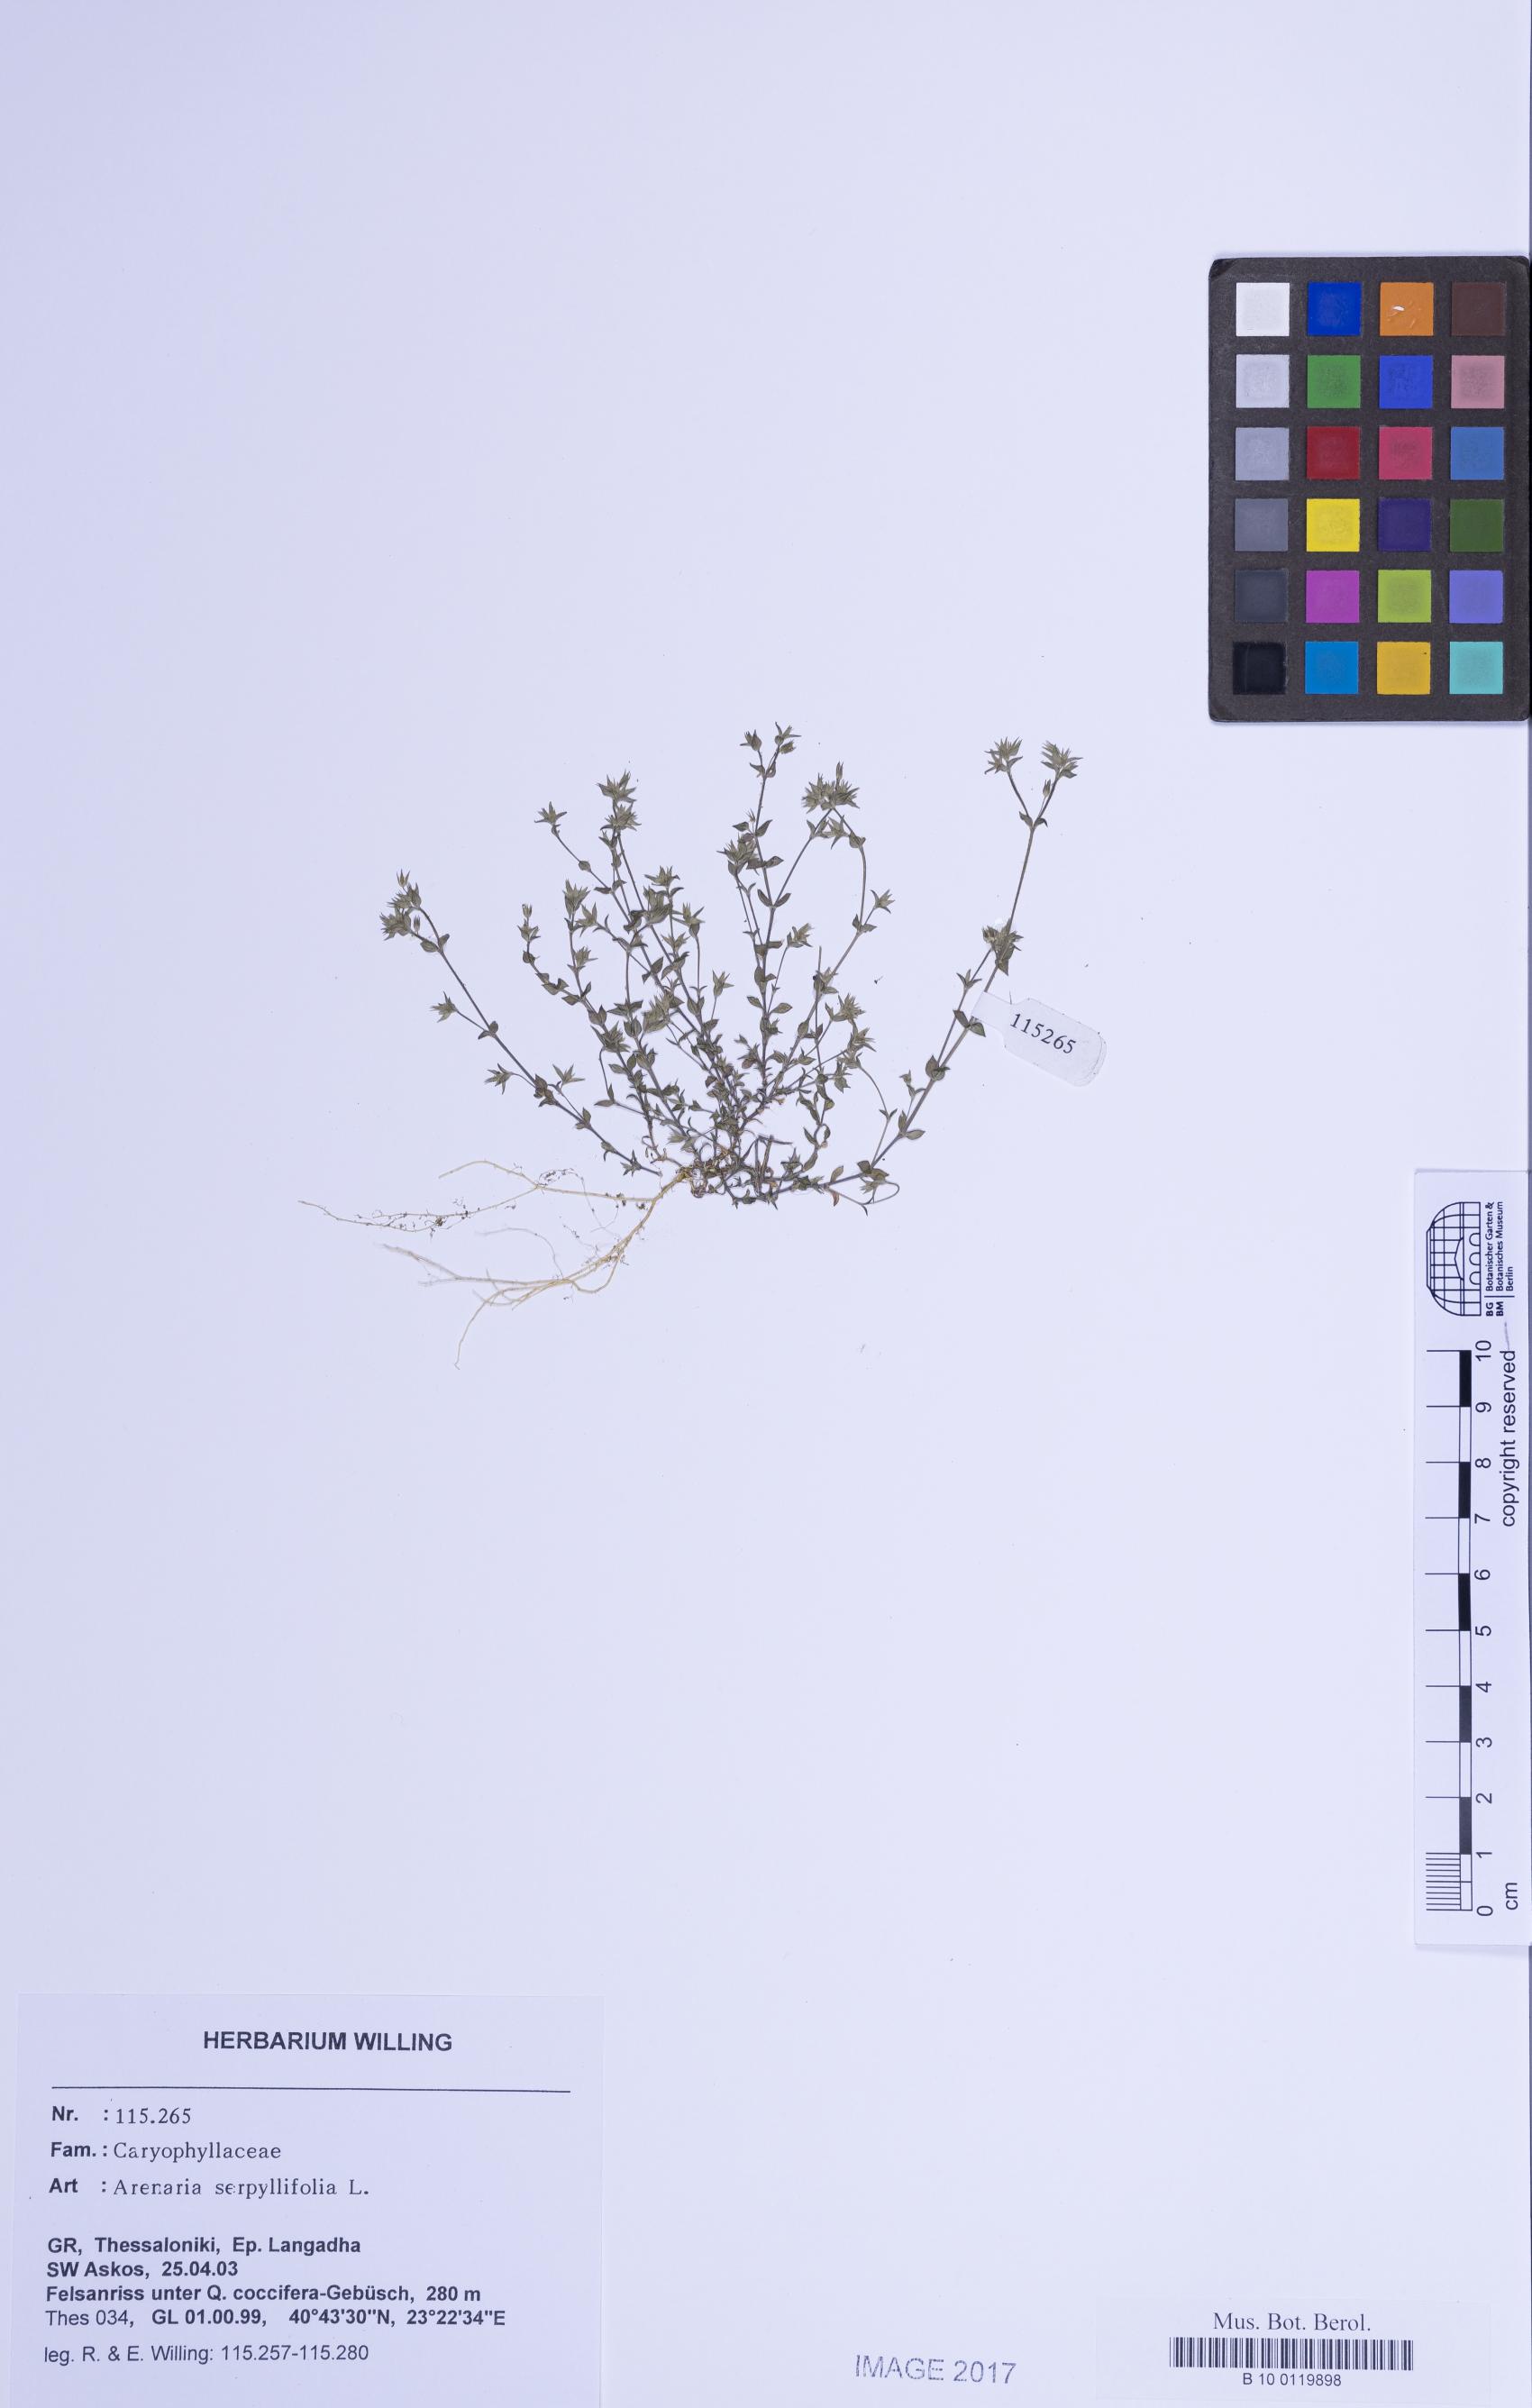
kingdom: Plantae
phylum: Tracheophyta
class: Magnoliopsida
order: Caryophyllales
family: Caryophyllaceae
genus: Arenaria
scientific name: Arenaria serpyllifolia
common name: Thyme-leaved sandwort
